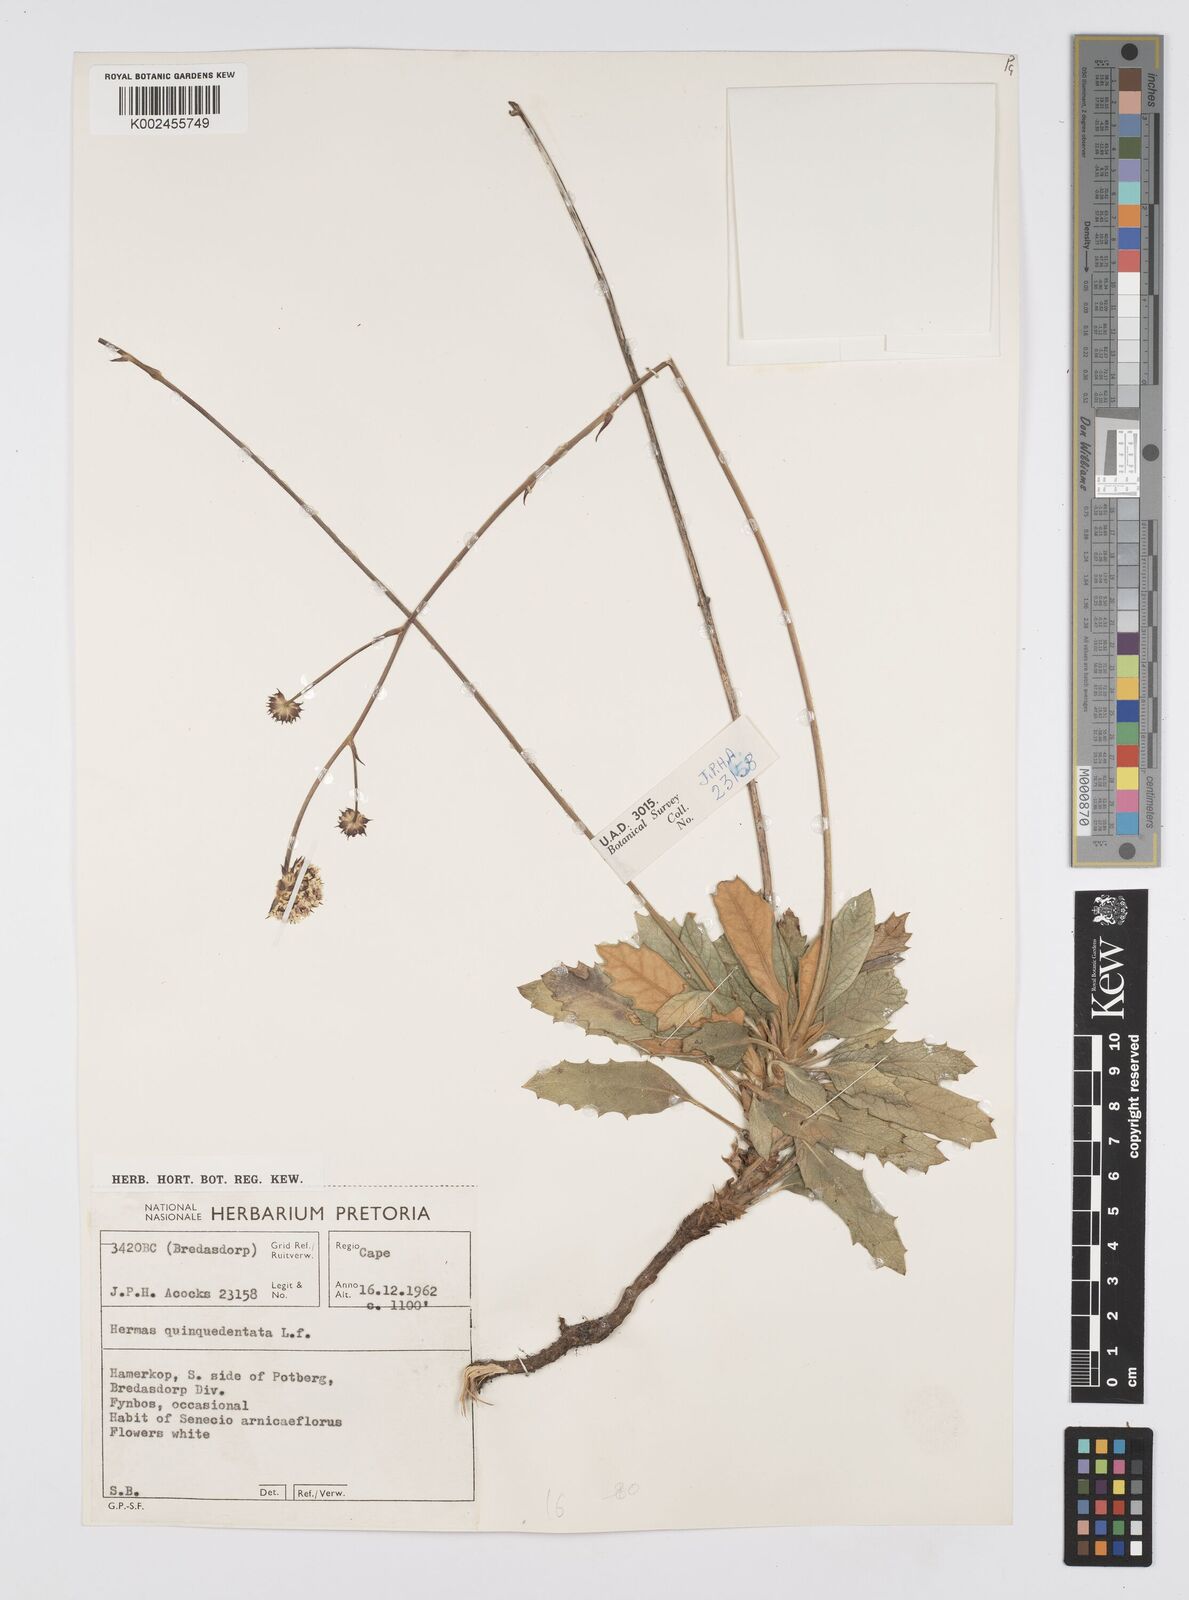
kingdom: Plantae
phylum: Tracheophyta
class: Magnoliopsida
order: Apiales
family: Apiaceae
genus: Hermas
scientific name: Hermas quinquedentata
